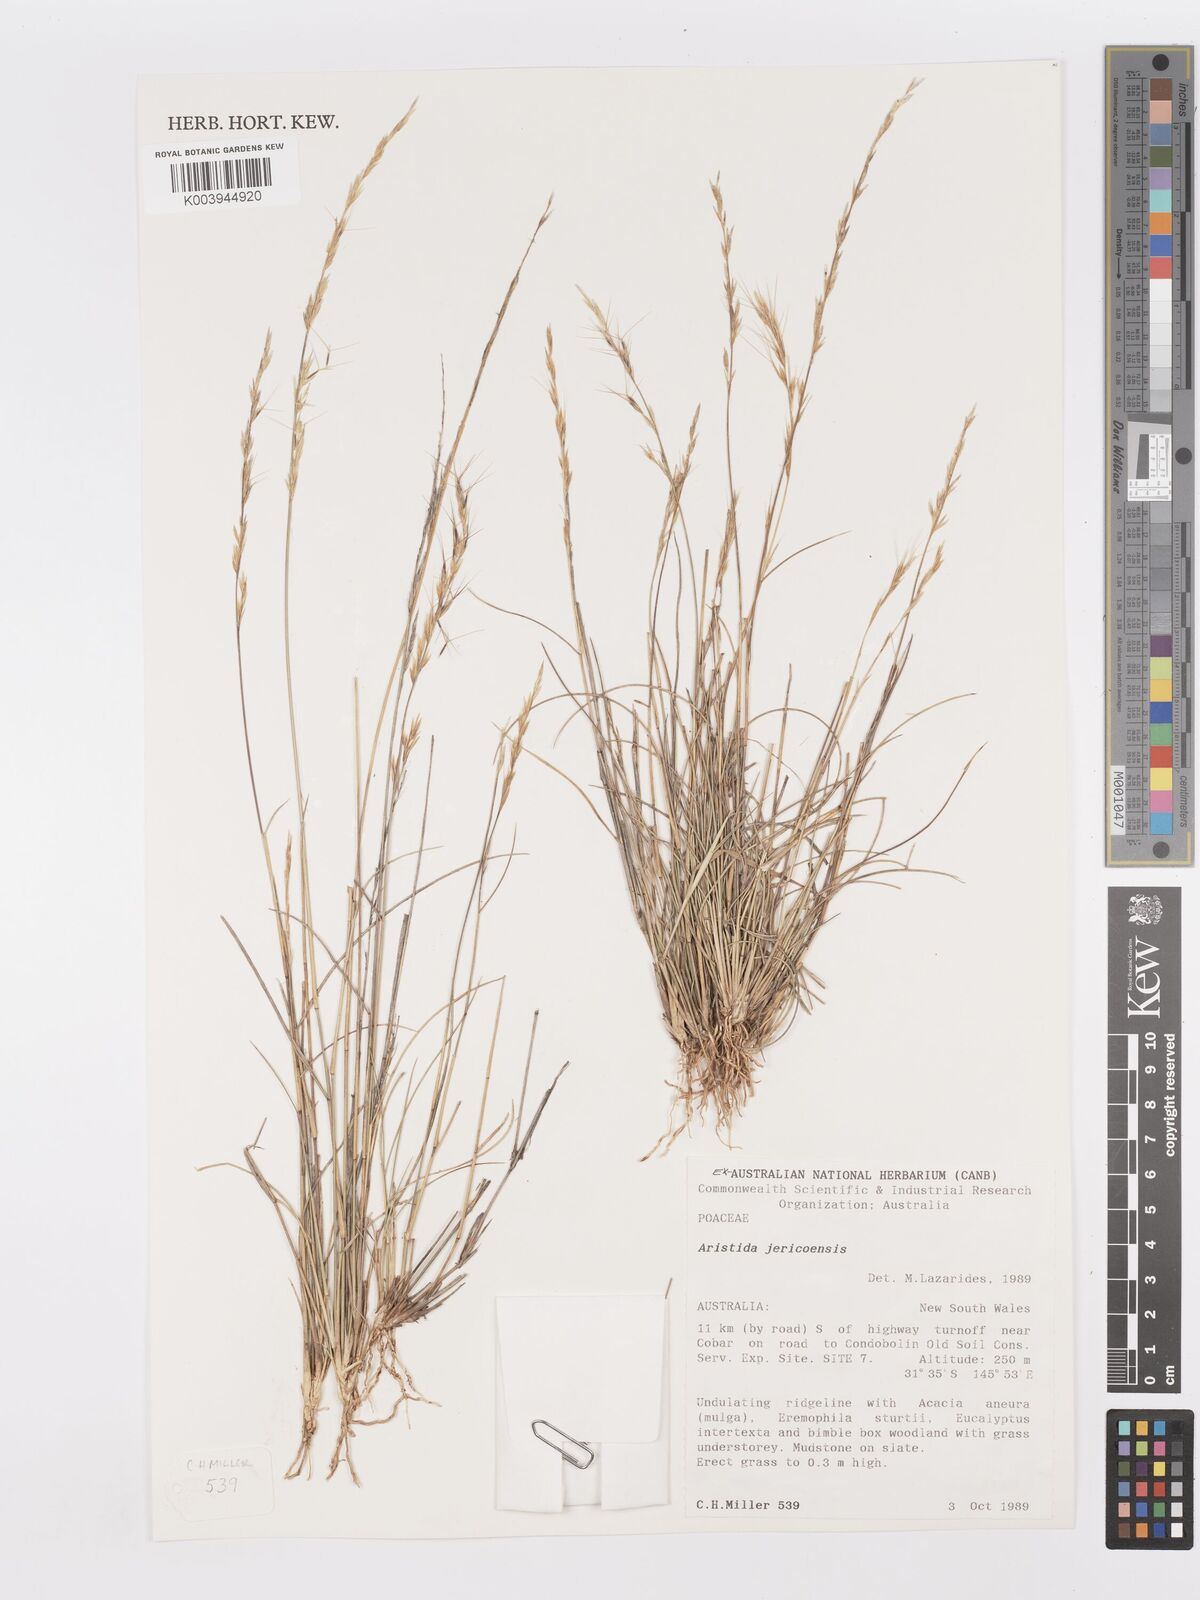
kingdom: Plantae
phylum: Tracheophyta
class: Liliopsida
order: Poales
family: Poaceae
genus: Aristida
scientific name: Aristida jerichoensis
